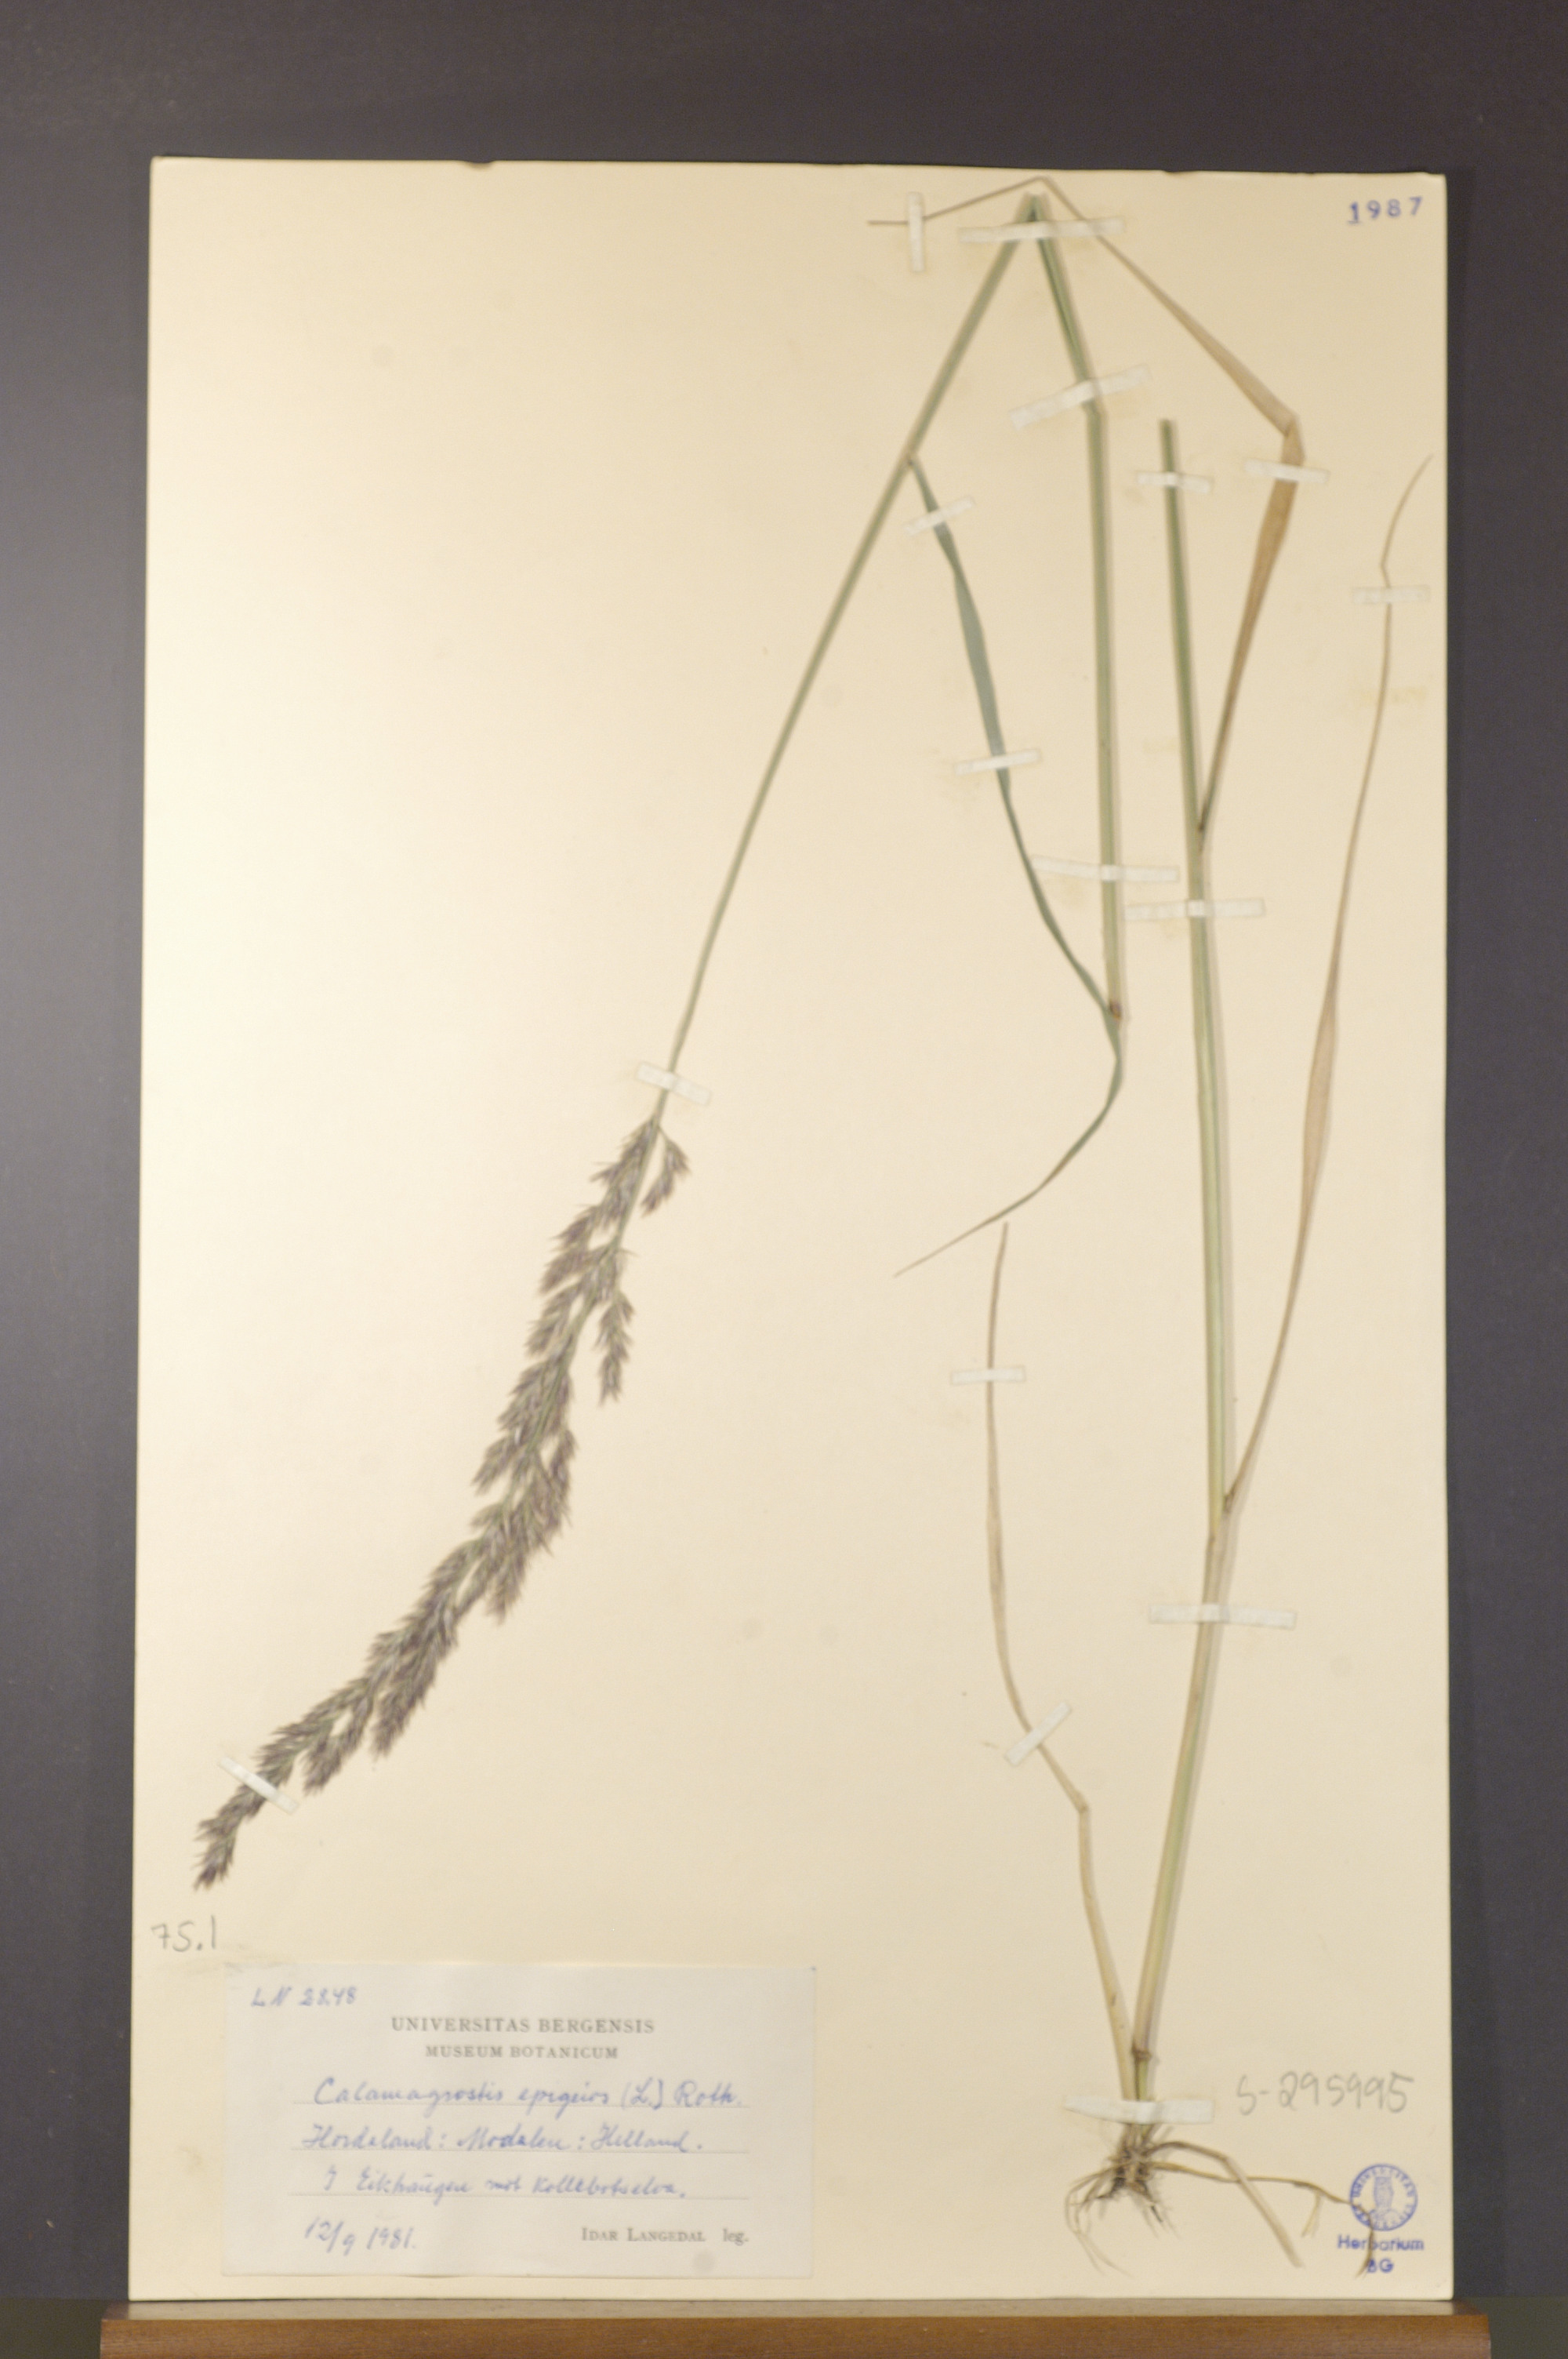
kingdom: Plantae
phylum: Tracheophyta
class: Liliopsida
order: Poales
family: Poaceae
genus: Calamagrostis
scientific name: Calamagrostis epigejos
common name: Wood small-reed
